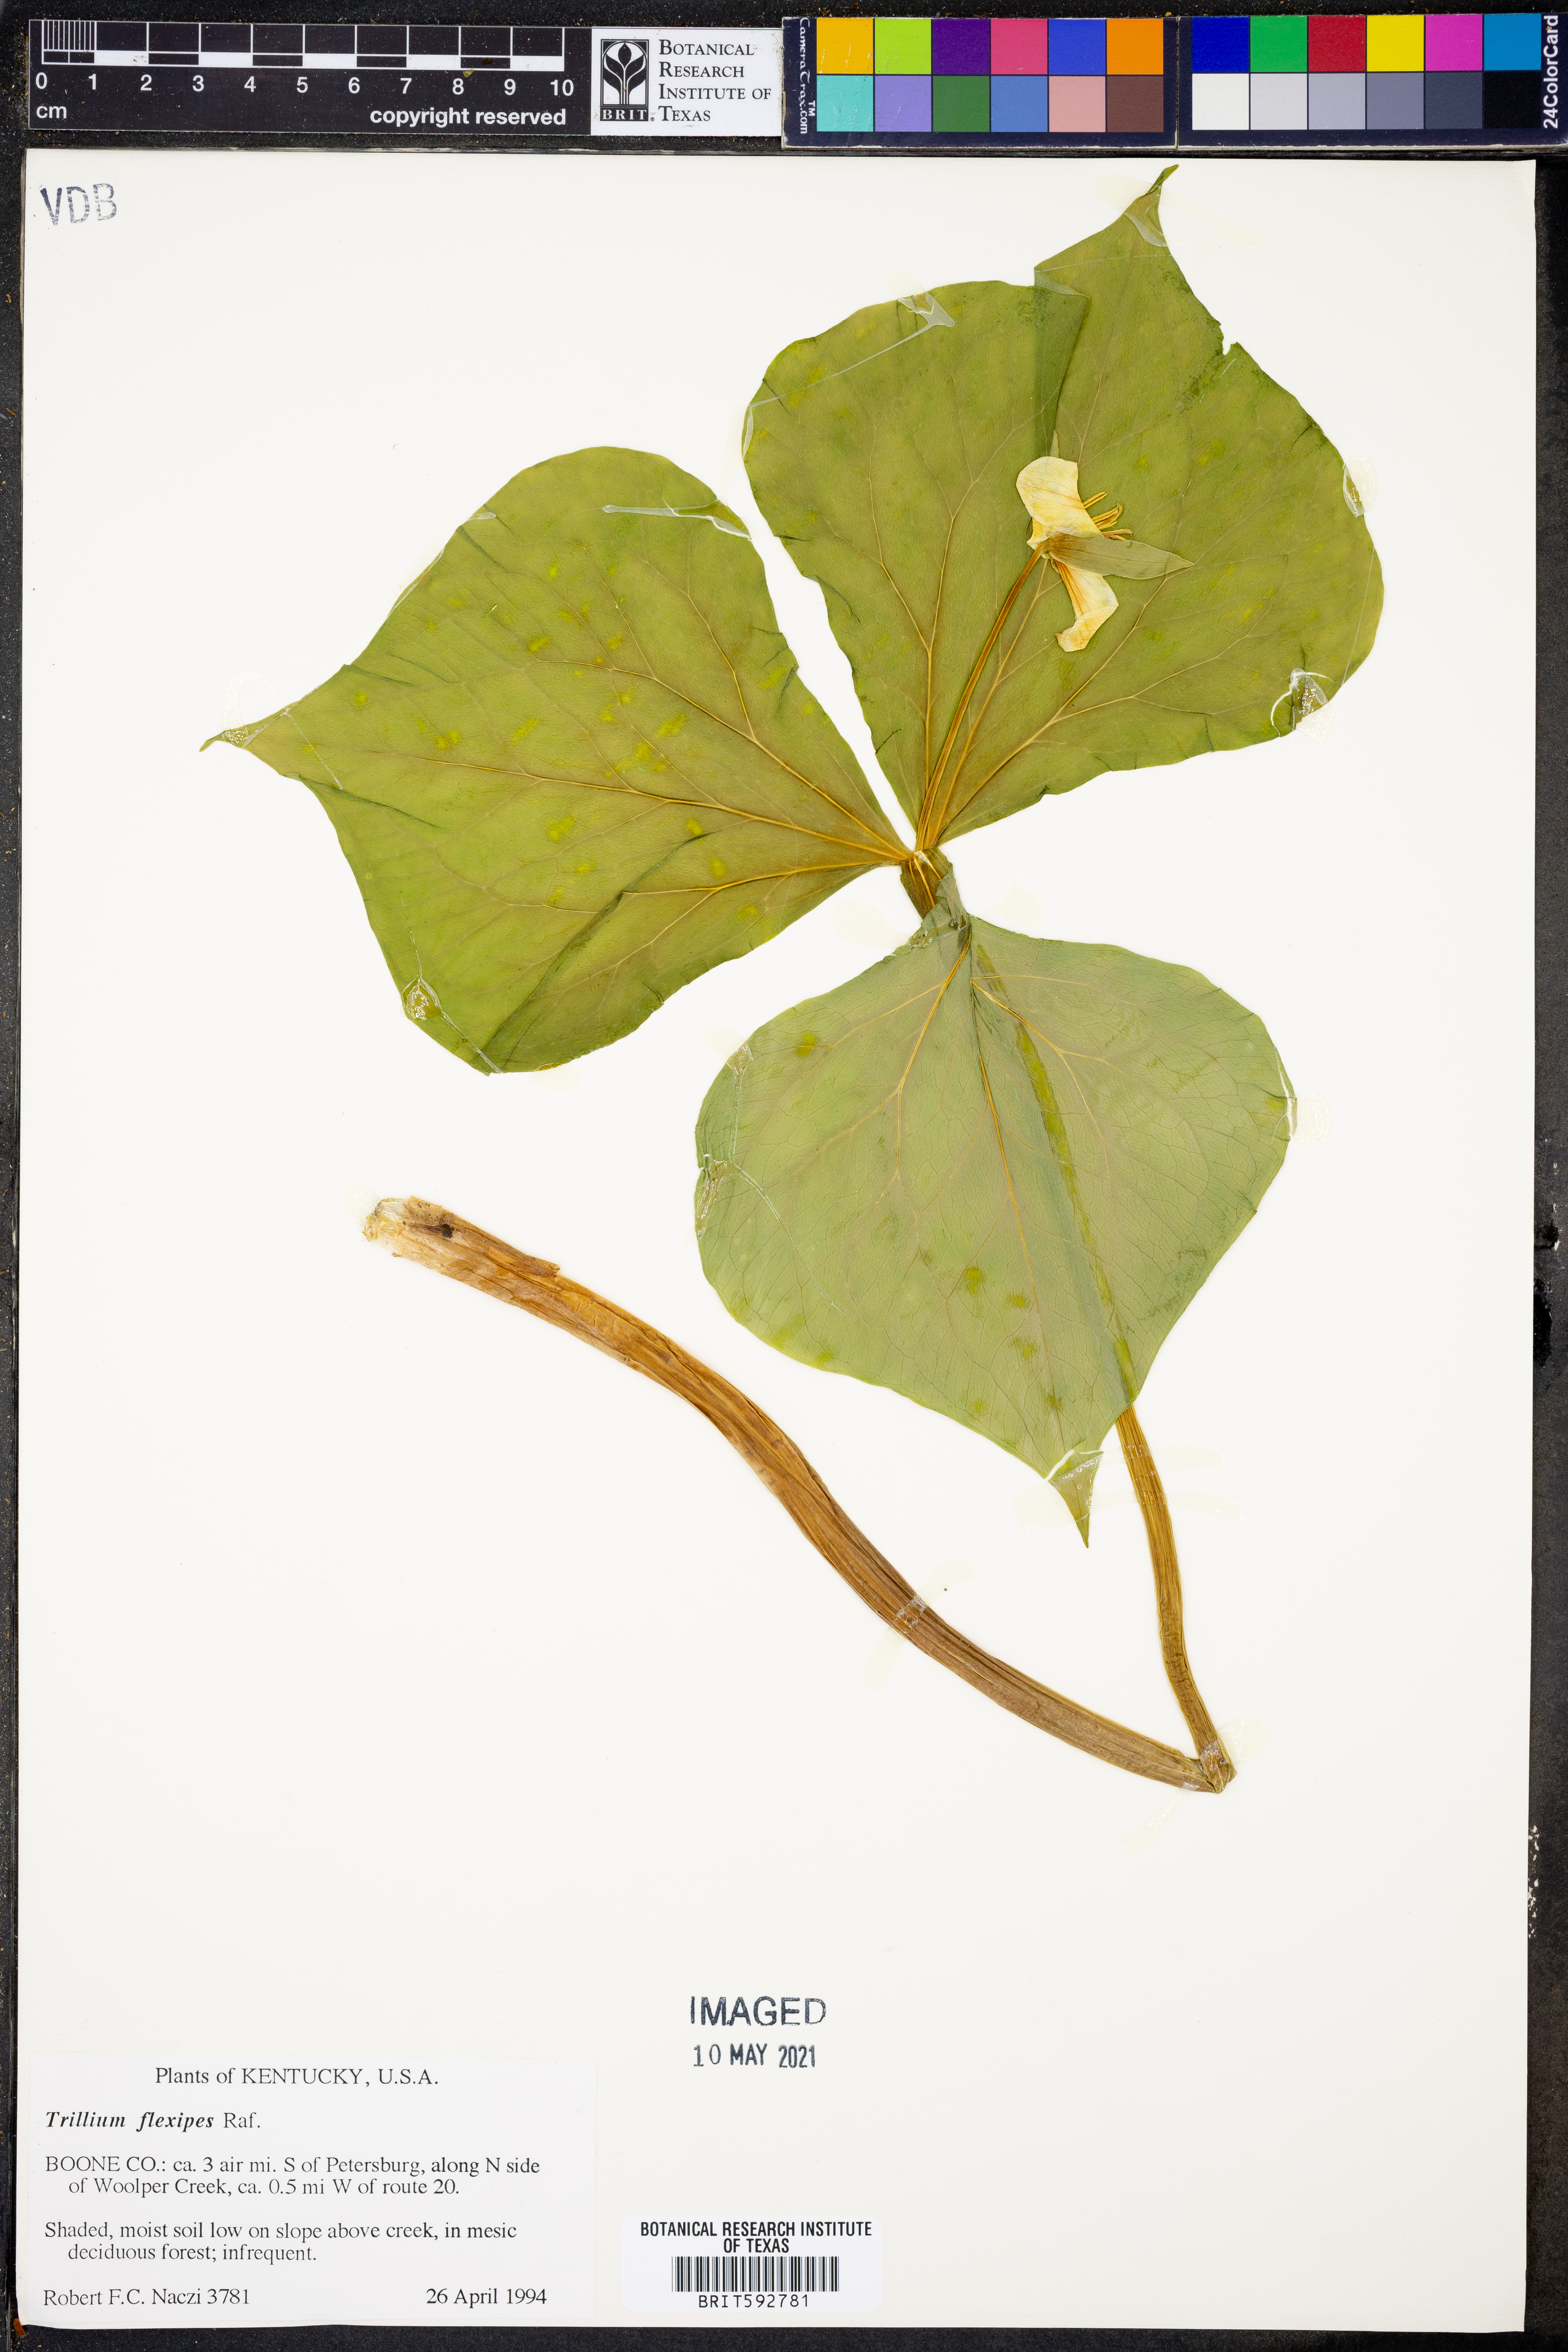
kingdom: Plantae
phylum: Tracheophyta
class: Liliopsida
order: Liliales
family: Melanthiaceae
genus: Trillium
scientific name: Trillium flexipes
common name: Drooping trillium
